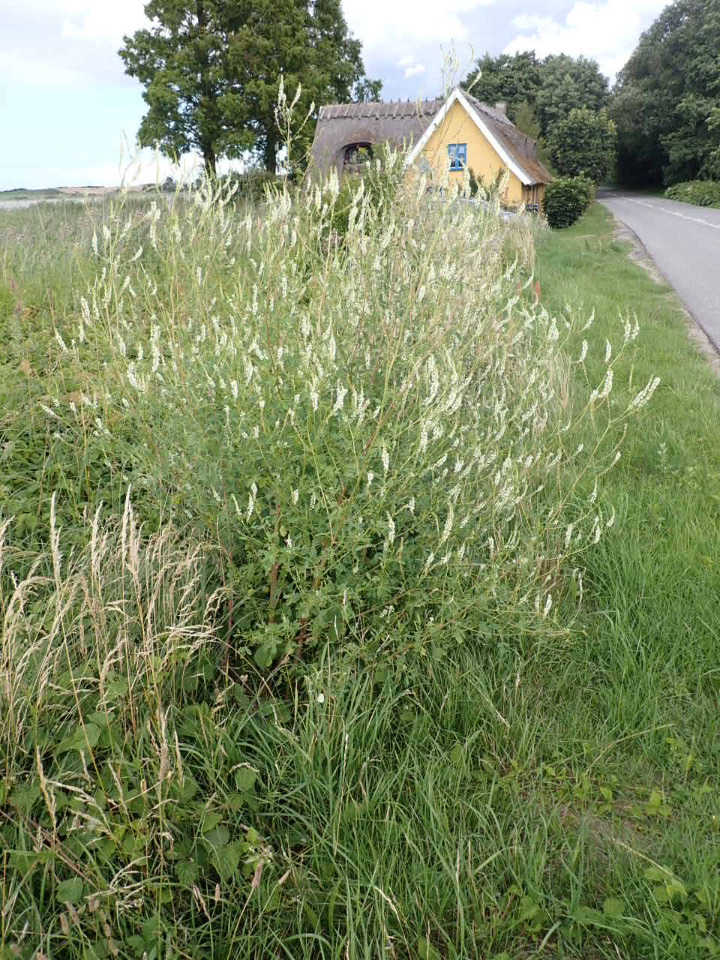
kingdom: Plantae
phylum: Tracheophyta
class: Magnoliopsida
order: Fabales
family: Fabaceae
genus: Melilotus
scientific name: Melilotus albus
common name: Hvid stenkløver
